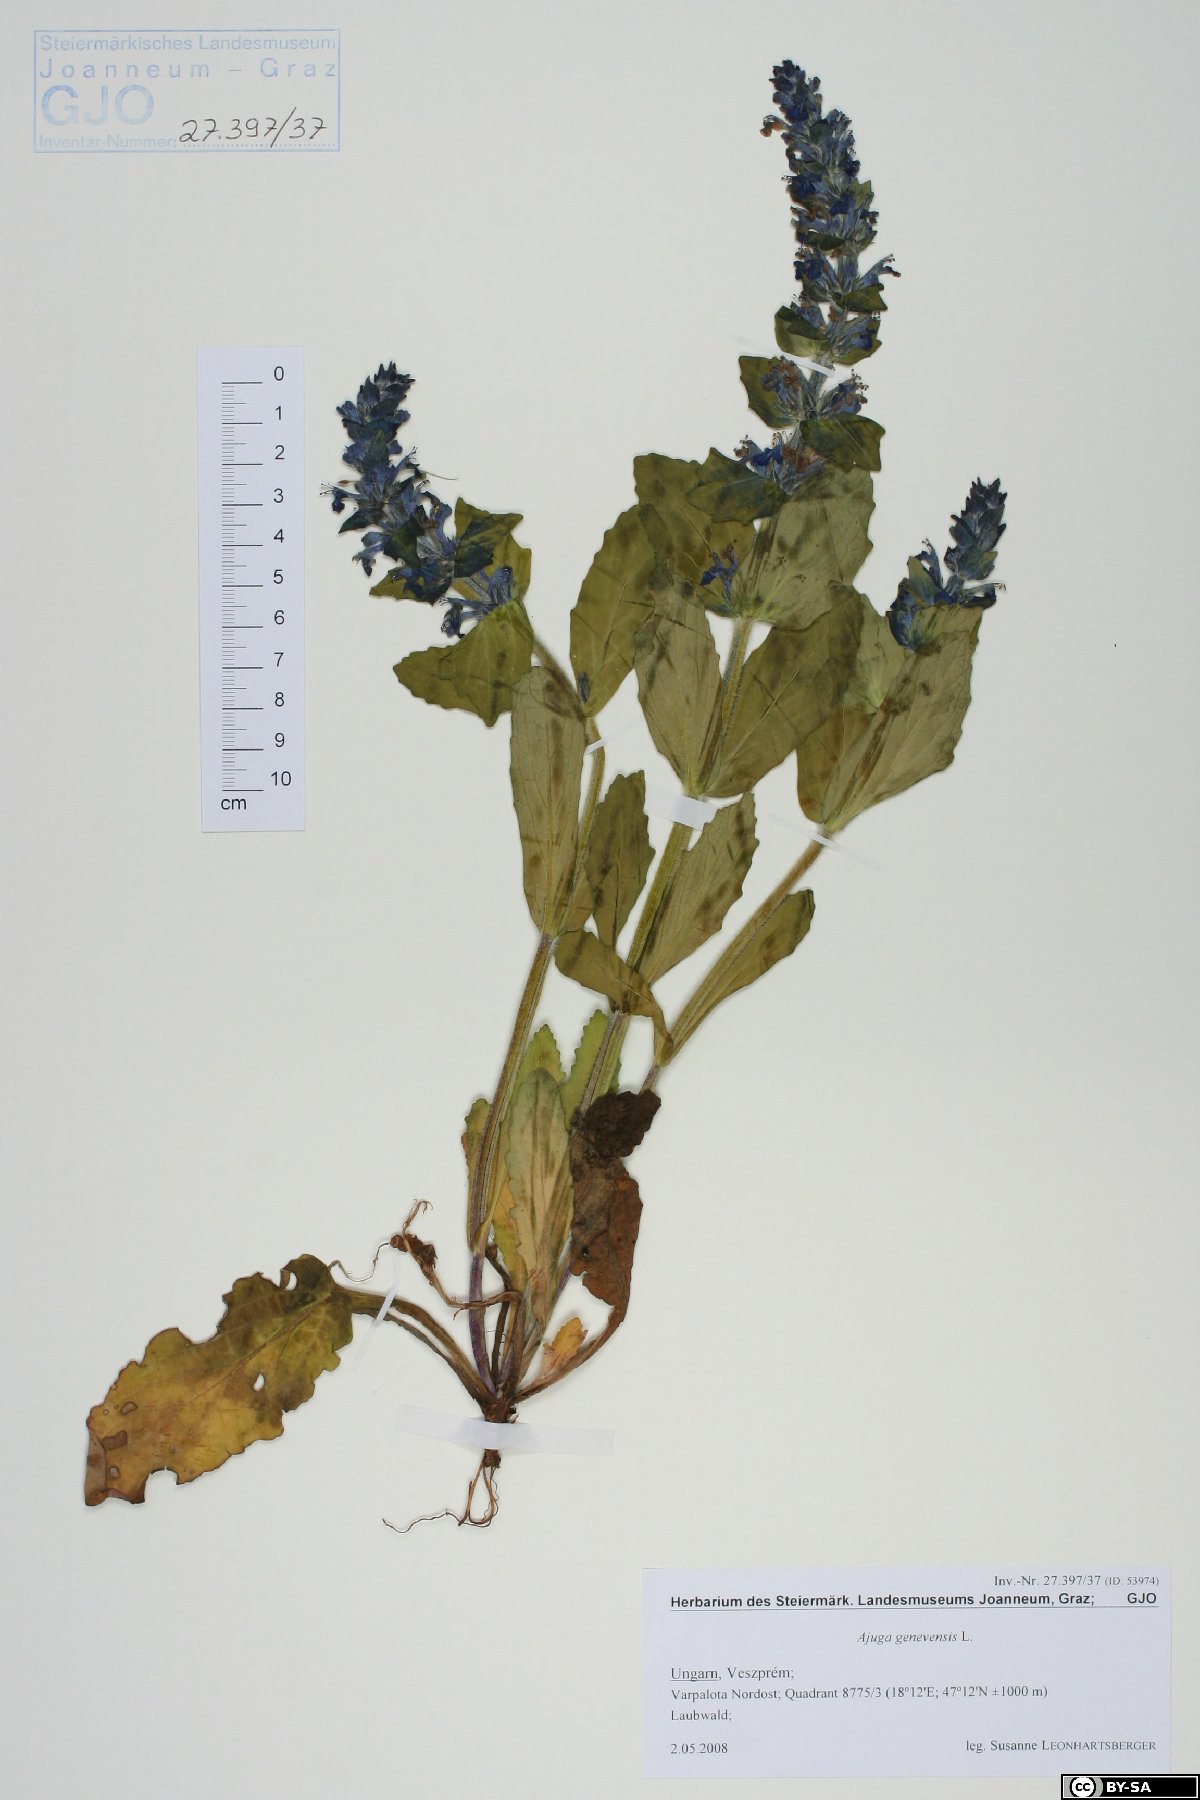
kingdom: Plantae
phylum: Tracheophyta
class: Magnoliopsida
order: Lamiales
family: Lamiaceae
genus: Ajuga
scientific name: Ajuga genevensis
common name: Blue bugle
